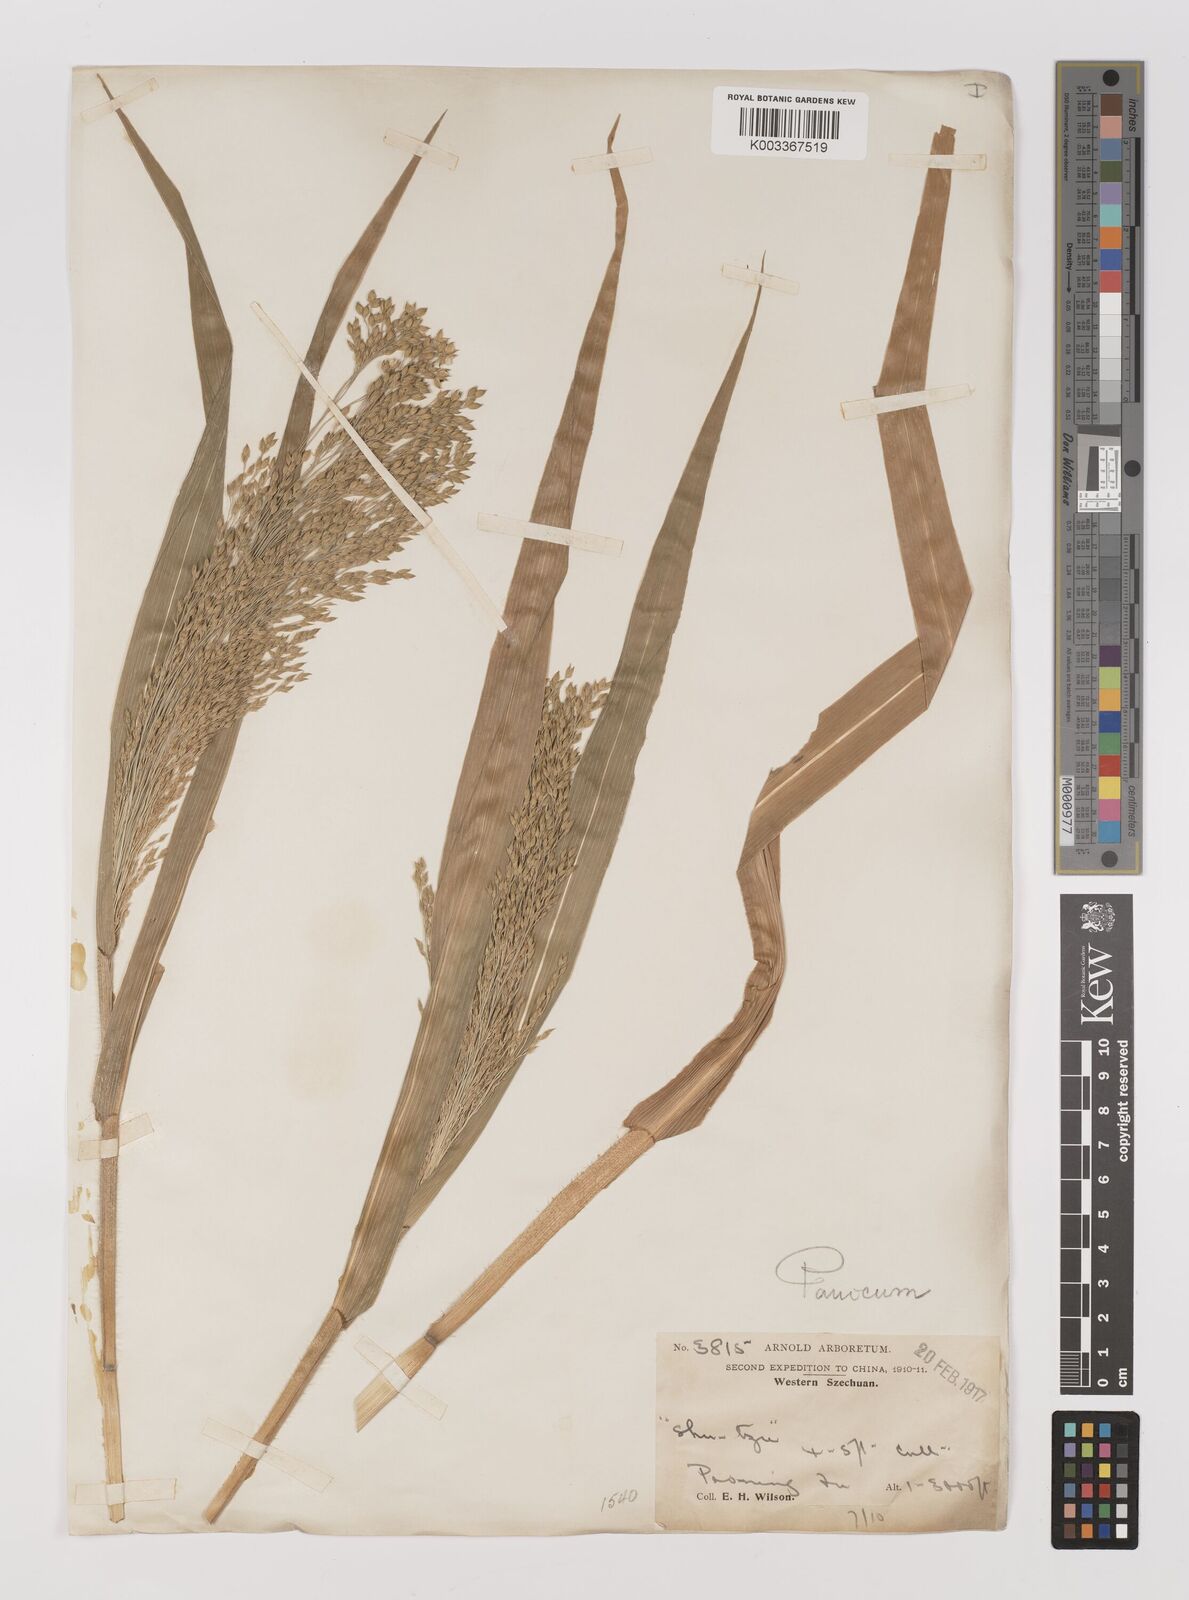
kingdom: Plantae
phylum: Tracheophyta
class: Liliopsida
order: Poales
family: Poaceae
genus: Panicum
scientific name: Panicum miliaceum
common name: Common millet
